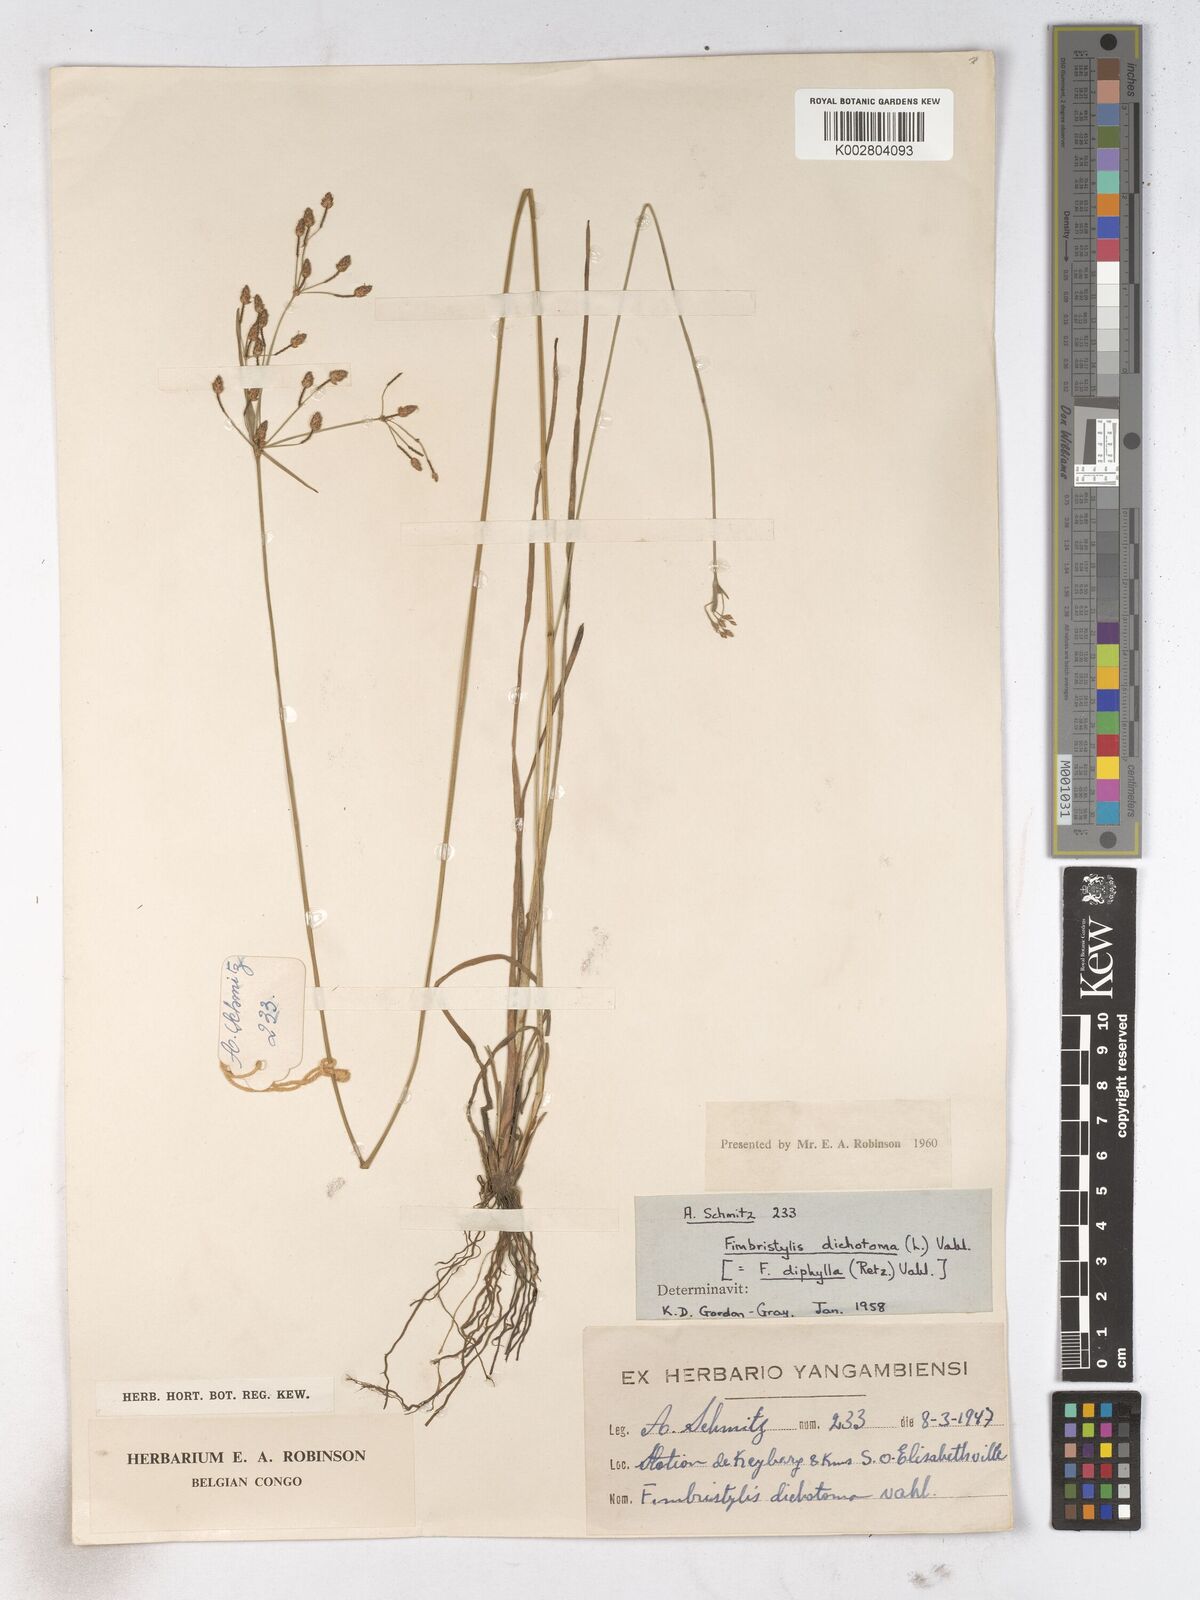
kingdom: Plantae
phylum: Tracheophyta
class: Liliopsida
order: Poales
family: Cyperaceae
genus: Fimbristylis
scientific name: Fimbristylis dichotoma
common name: Forked fimbry
